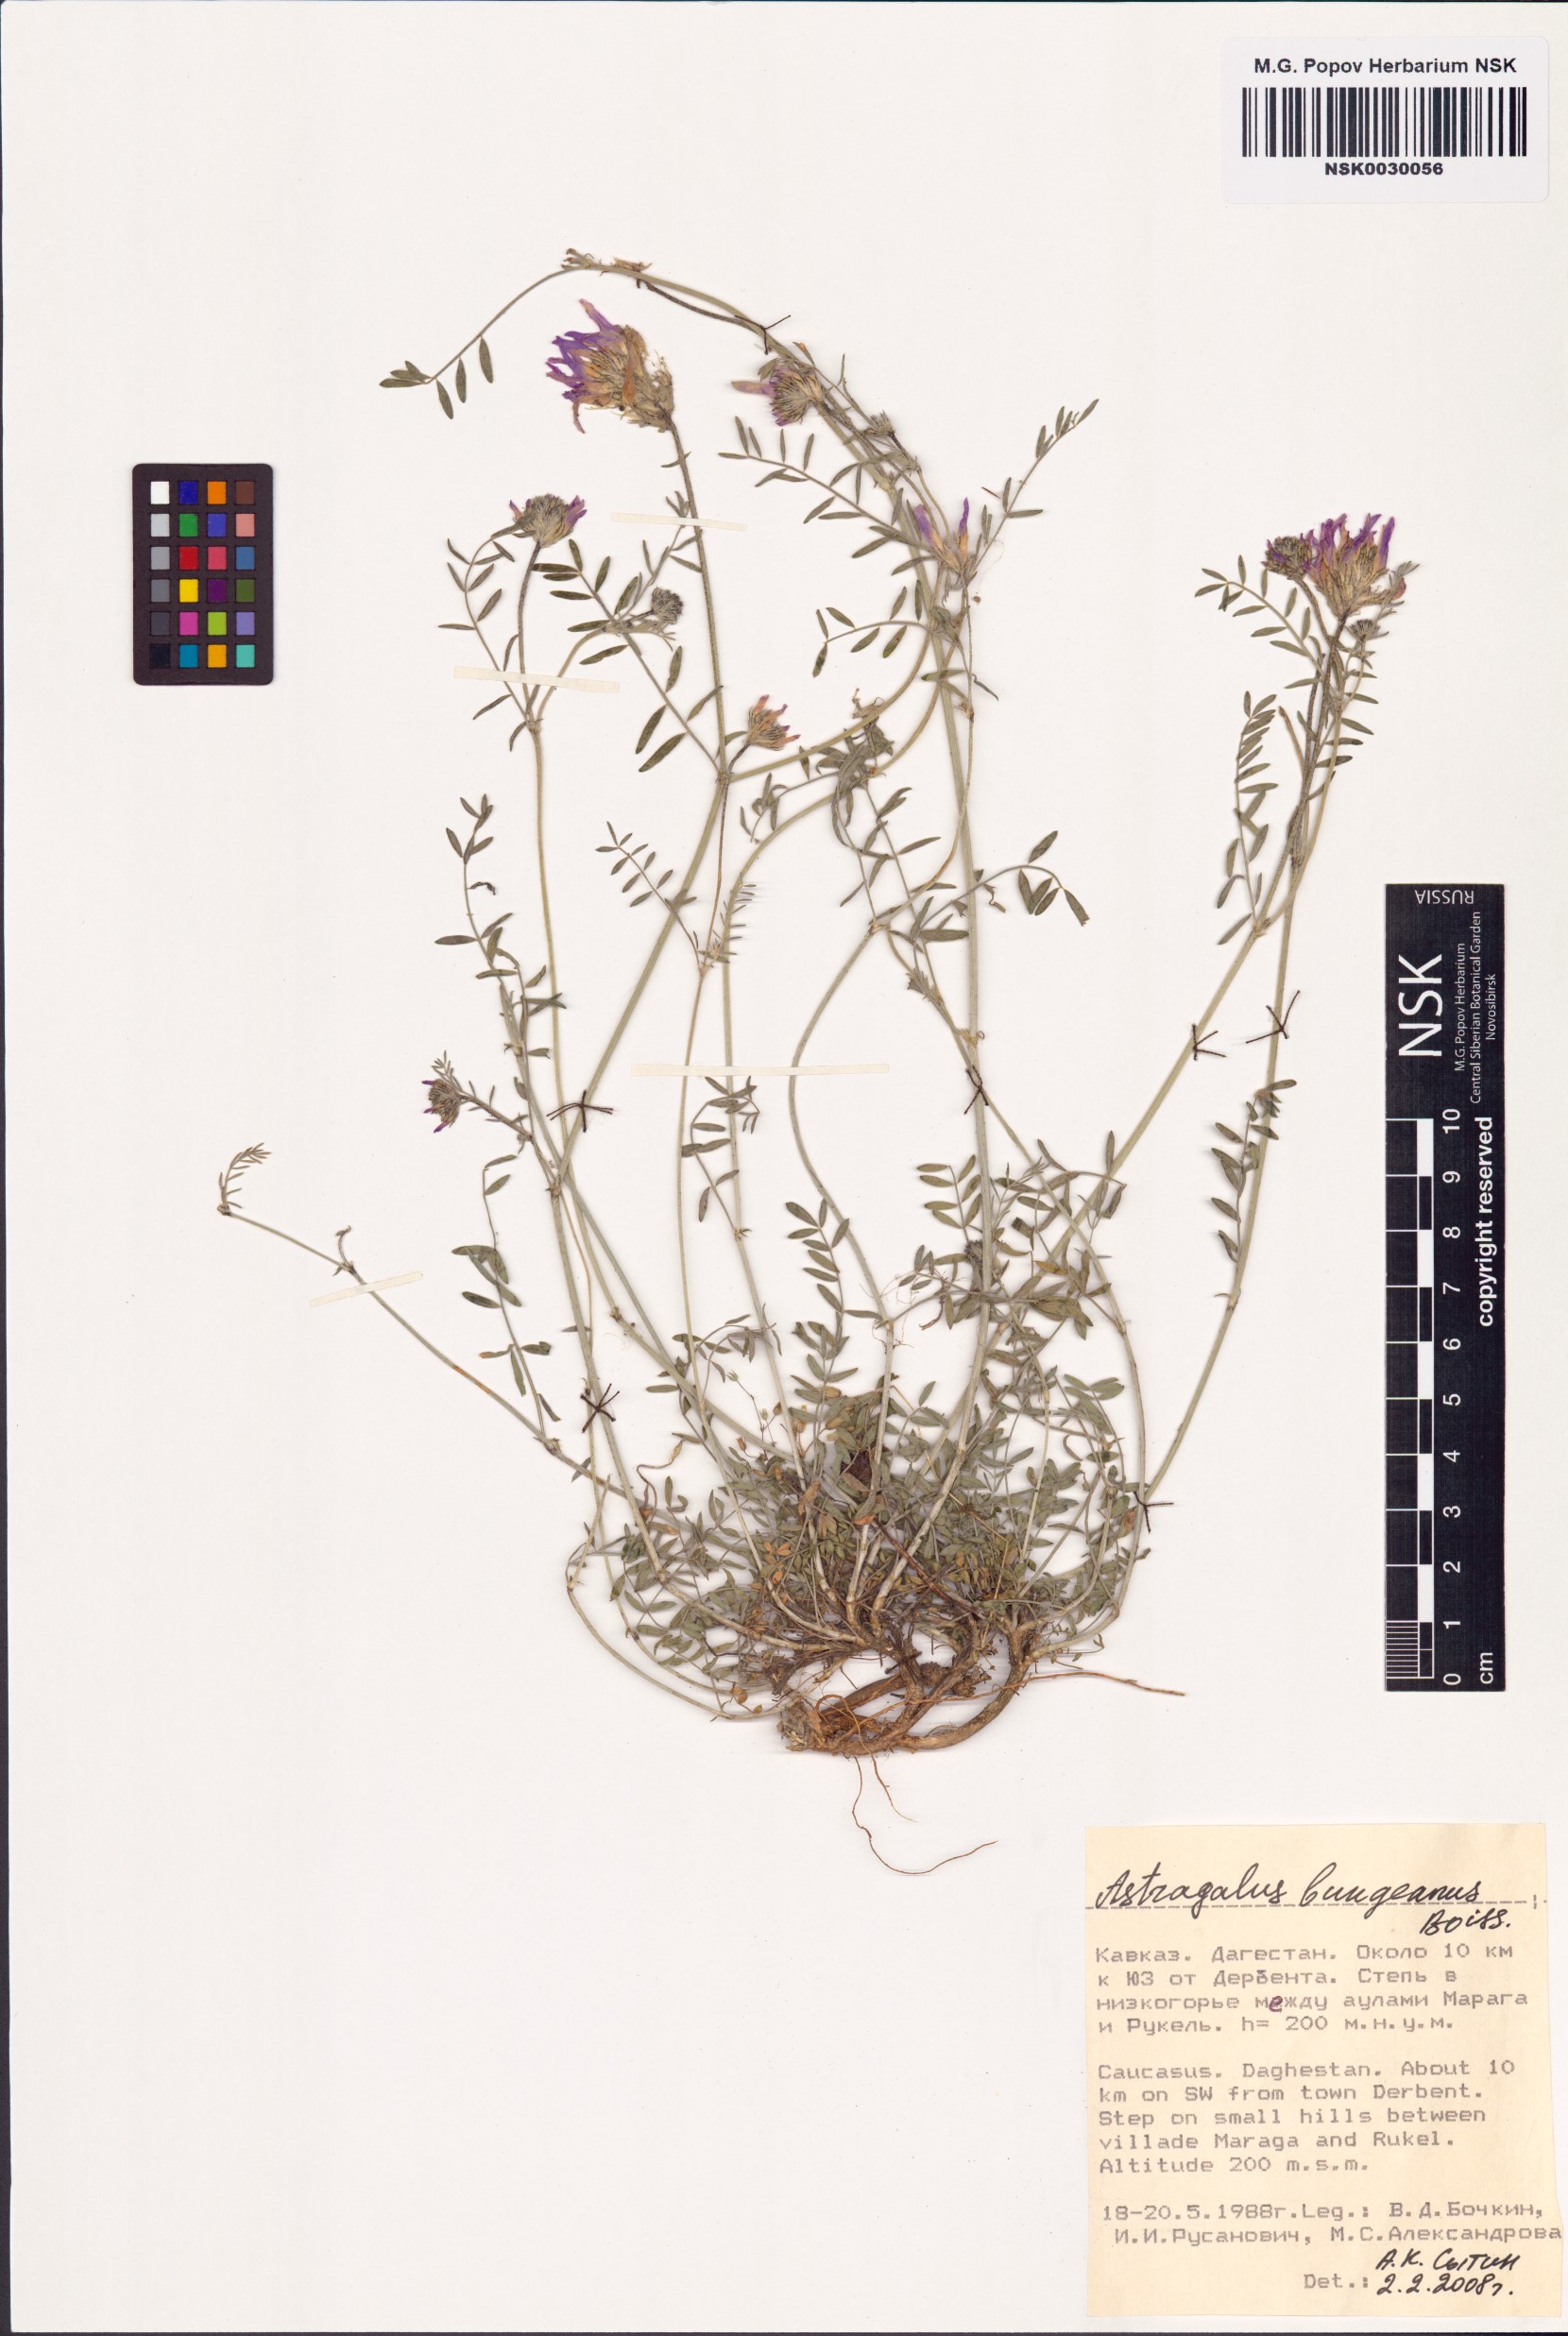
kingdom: Plantae
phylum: Tracheophyta
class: Magnoliopsida
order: Fabales
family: Fabaceae
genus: Astragalus
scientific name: Astragalus bungeanus
